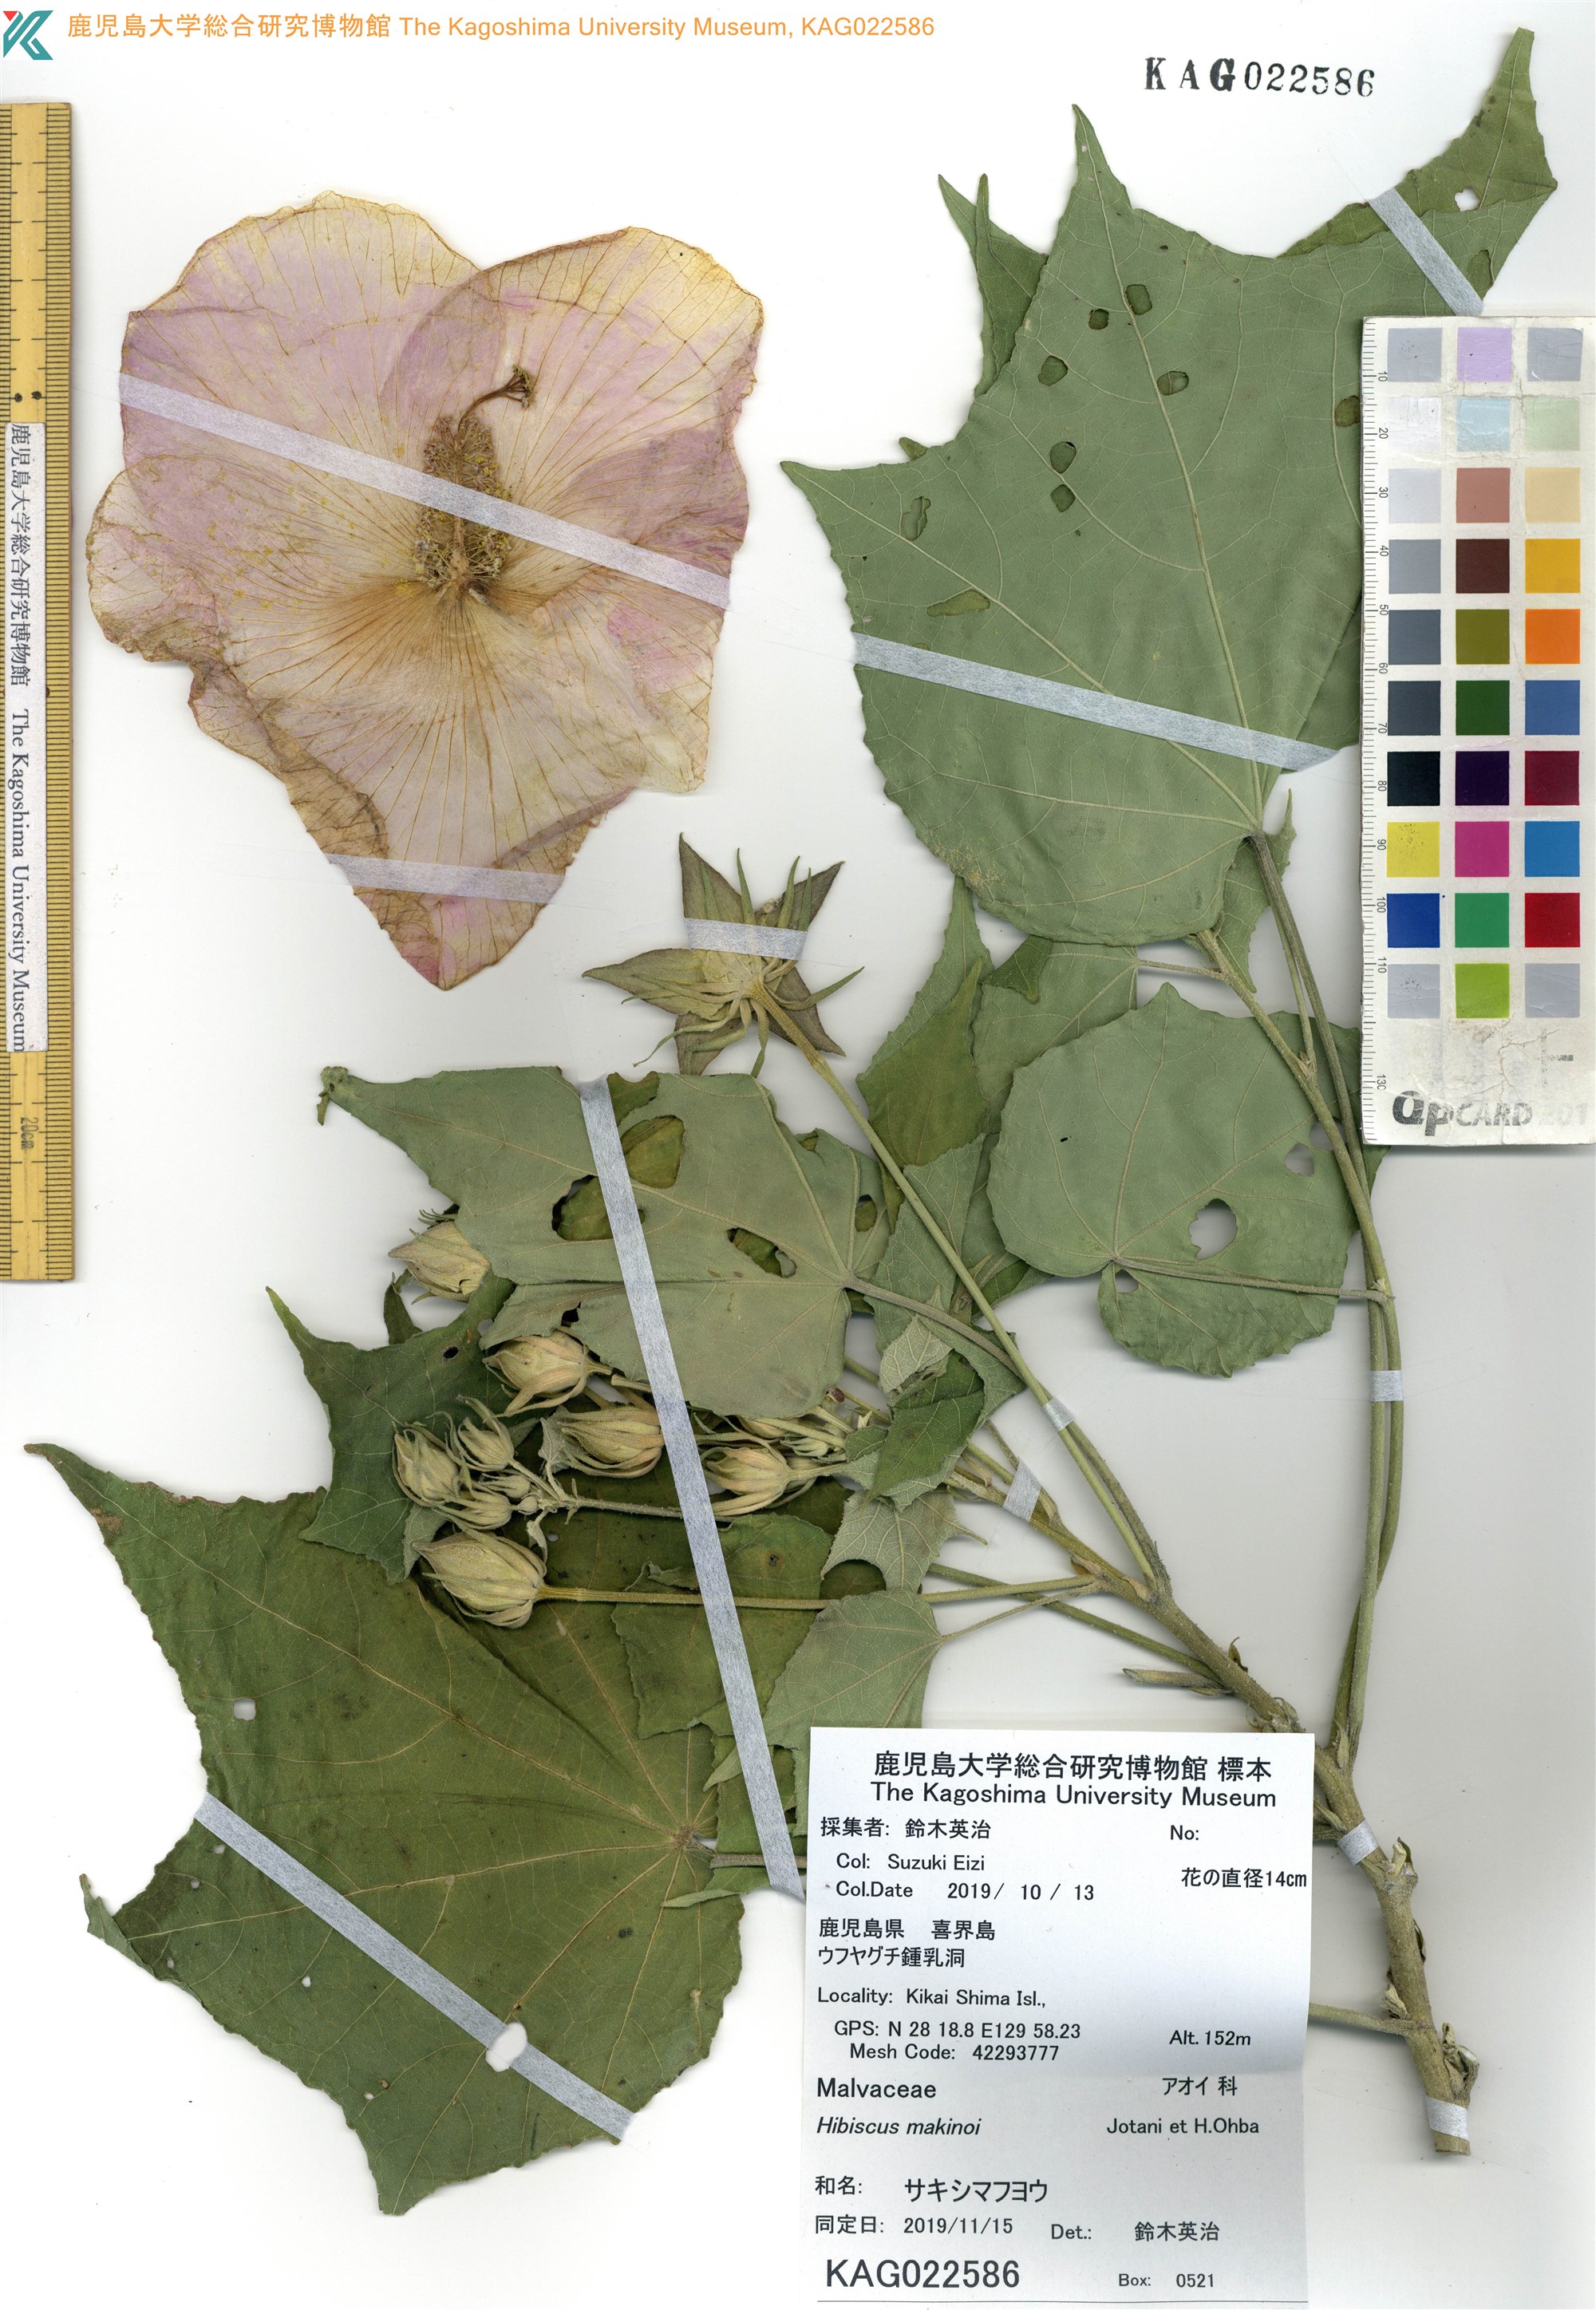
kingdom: Plantae
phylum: Tracheophyta
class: Magnoliopsida
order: Malvales
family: Malvaceae
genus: Hibiscus
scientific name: Hibiscus makinoi
